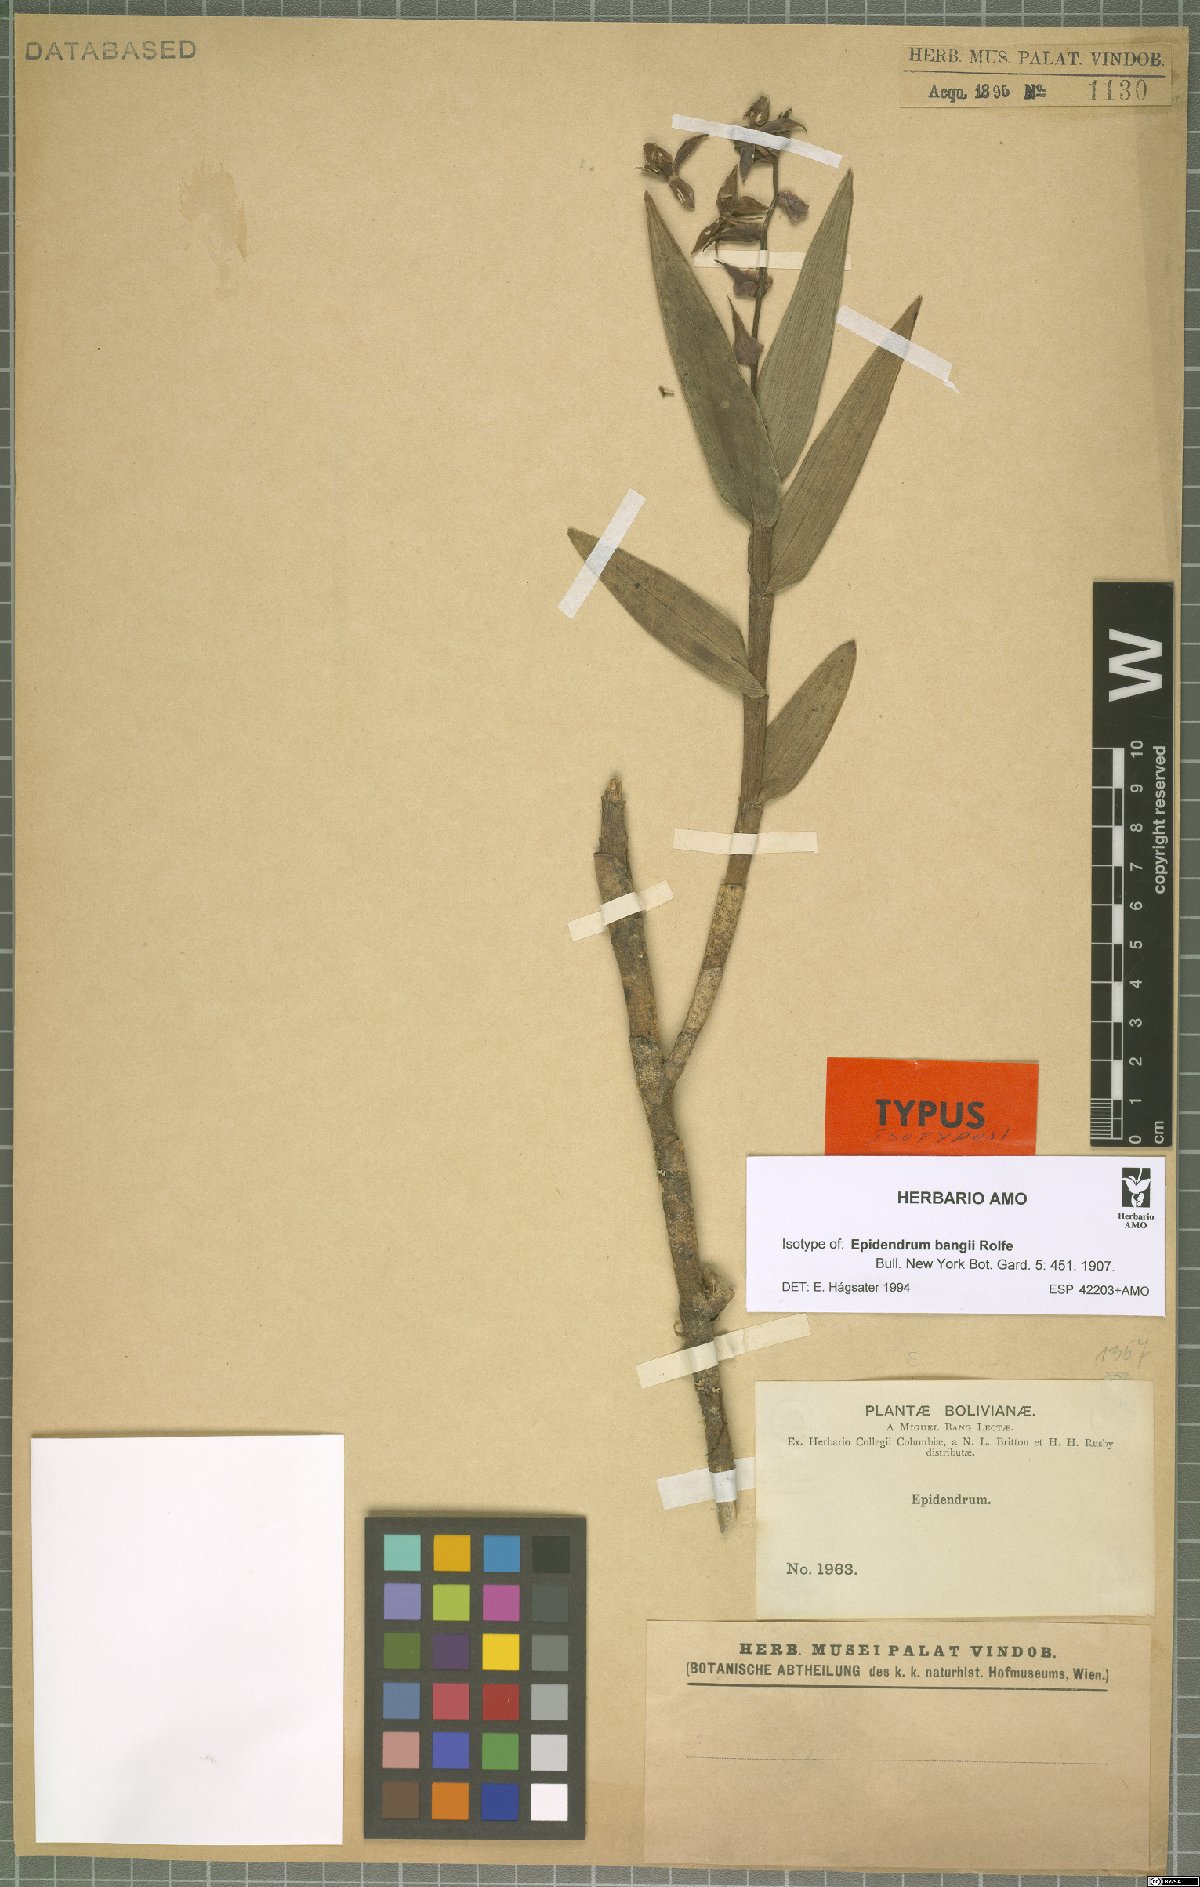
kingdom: Plantae
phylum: Tracheophyta
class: Liliopsida
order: Asparagales
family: Orchidaceae
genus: Epidendrum
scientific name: Epidendrum chondrochilum
